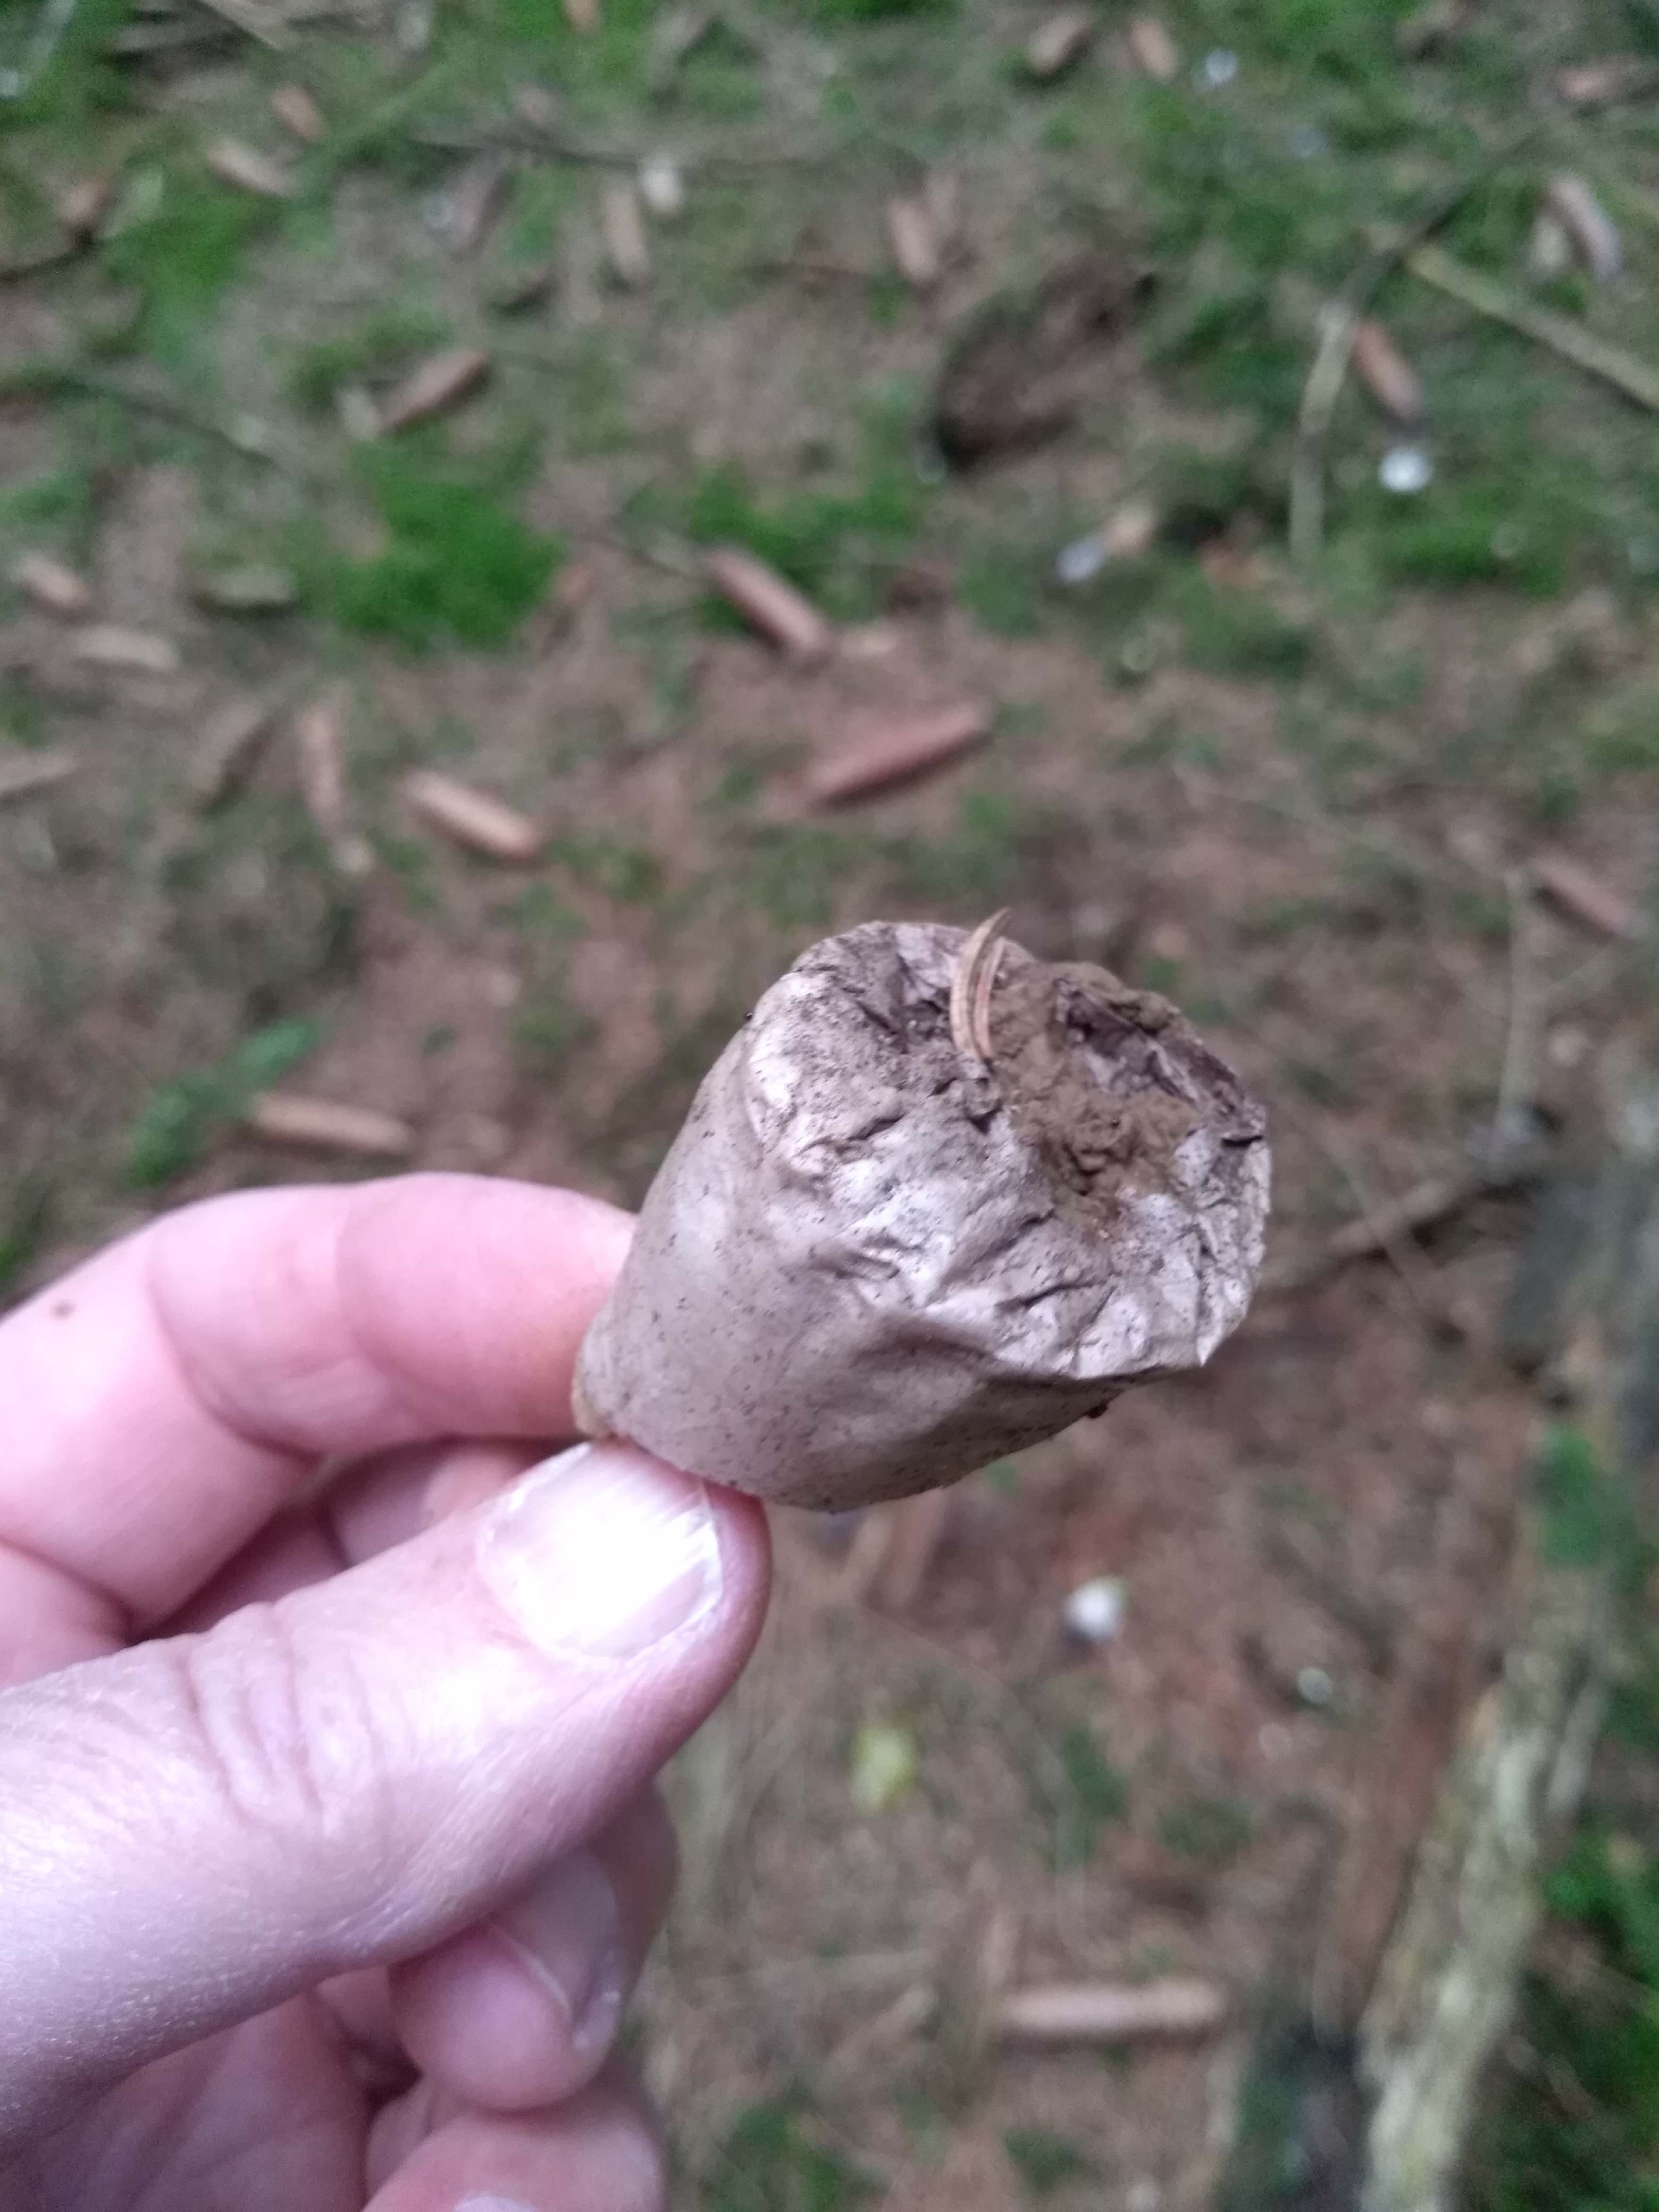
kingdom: Fungi
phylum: Basidiomycota
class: Agaricomycetes
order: Agaricales
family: Agaricaceae
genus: Lycoperdon
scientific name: Lycoperdon
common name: støvbold
